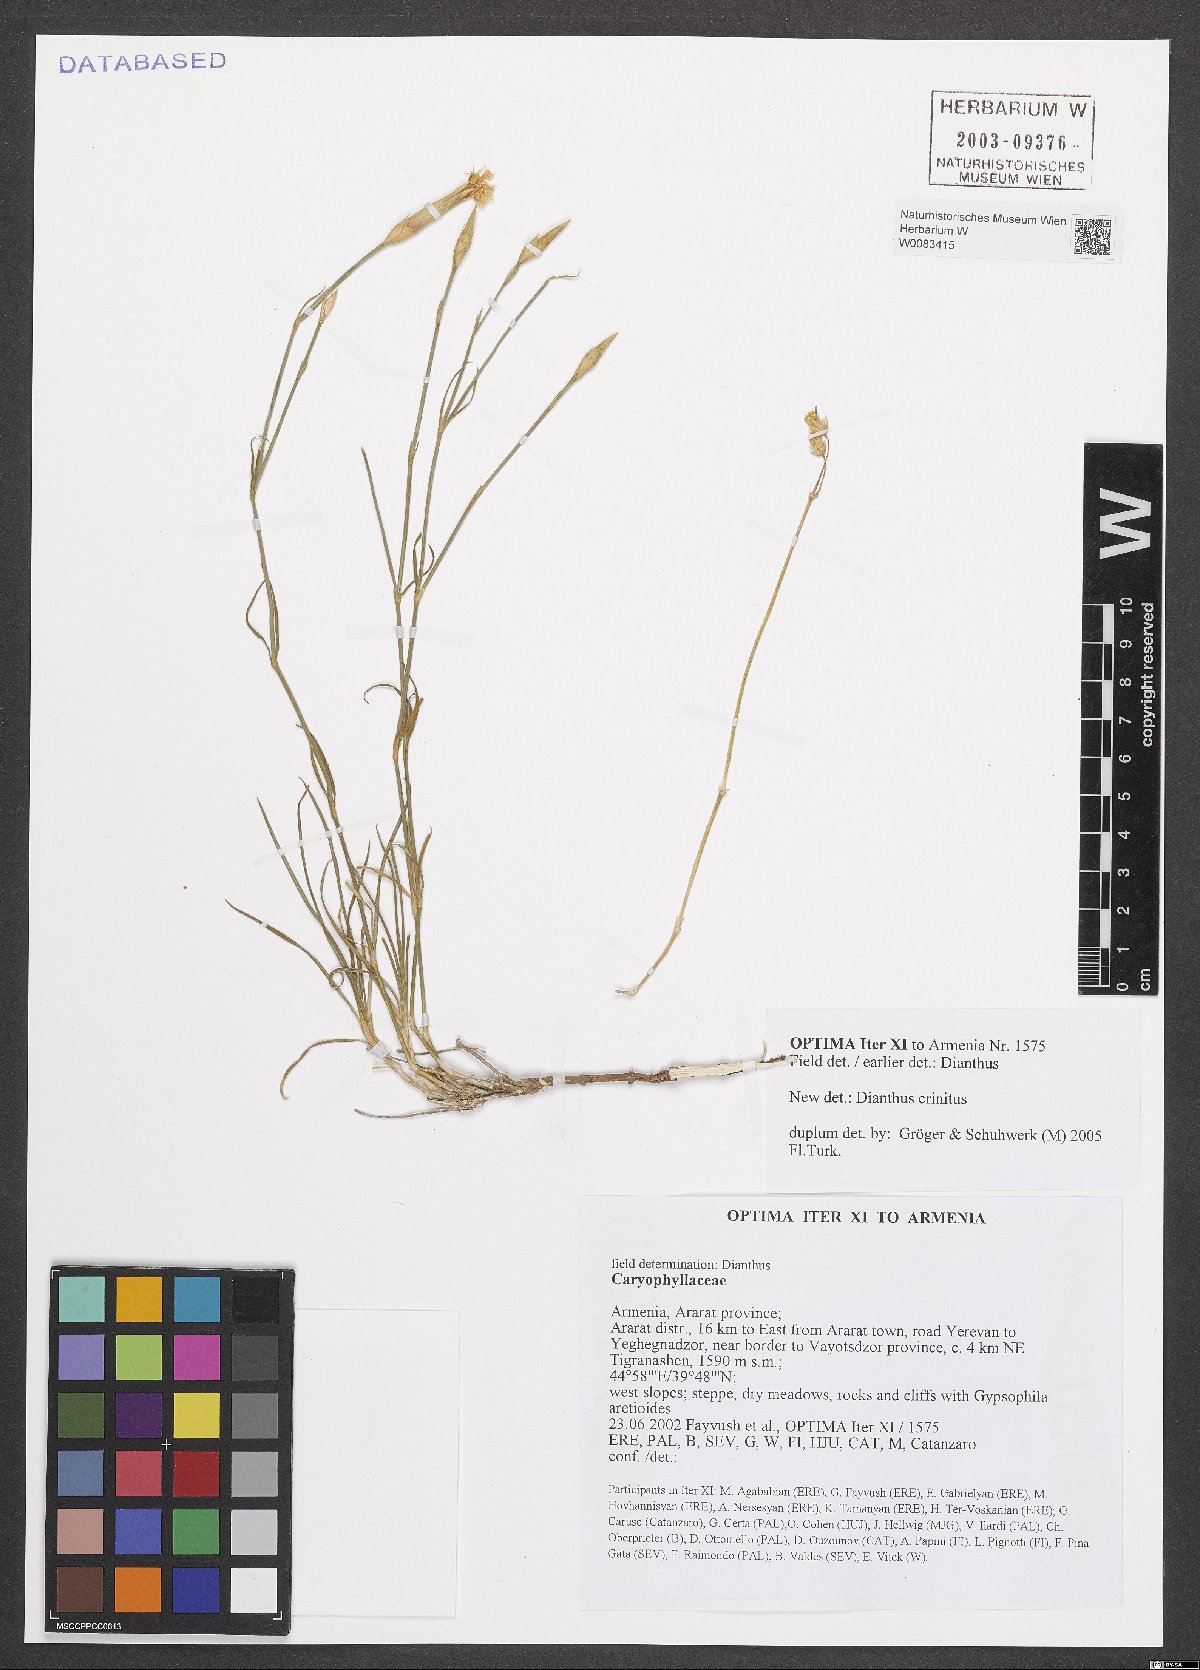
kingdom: Plantae
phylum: Tracheophyta
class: Magnoliopsida
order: Caryophyllales
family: Caryophyllaceae
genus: Dianthus
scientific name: Dianthus crinitus
